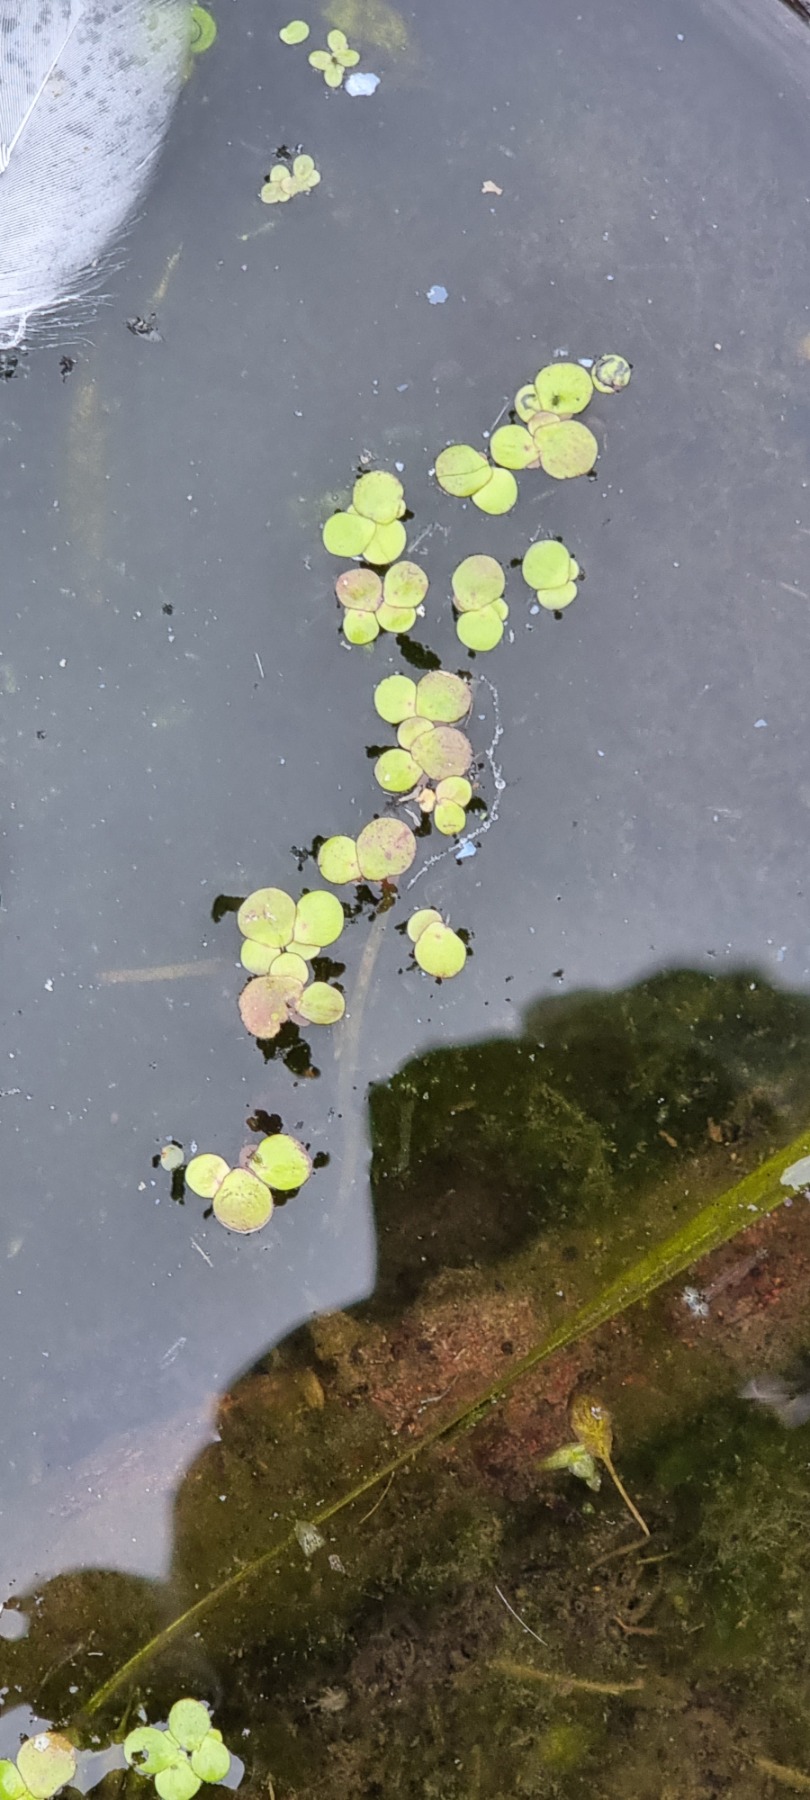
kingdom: Plantae
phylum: Tracheophyta
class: Liliopsida
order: Alismatales
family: Araceae
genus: Spirodela
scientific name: Spirodela polyrhiza
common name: Stor andemad
